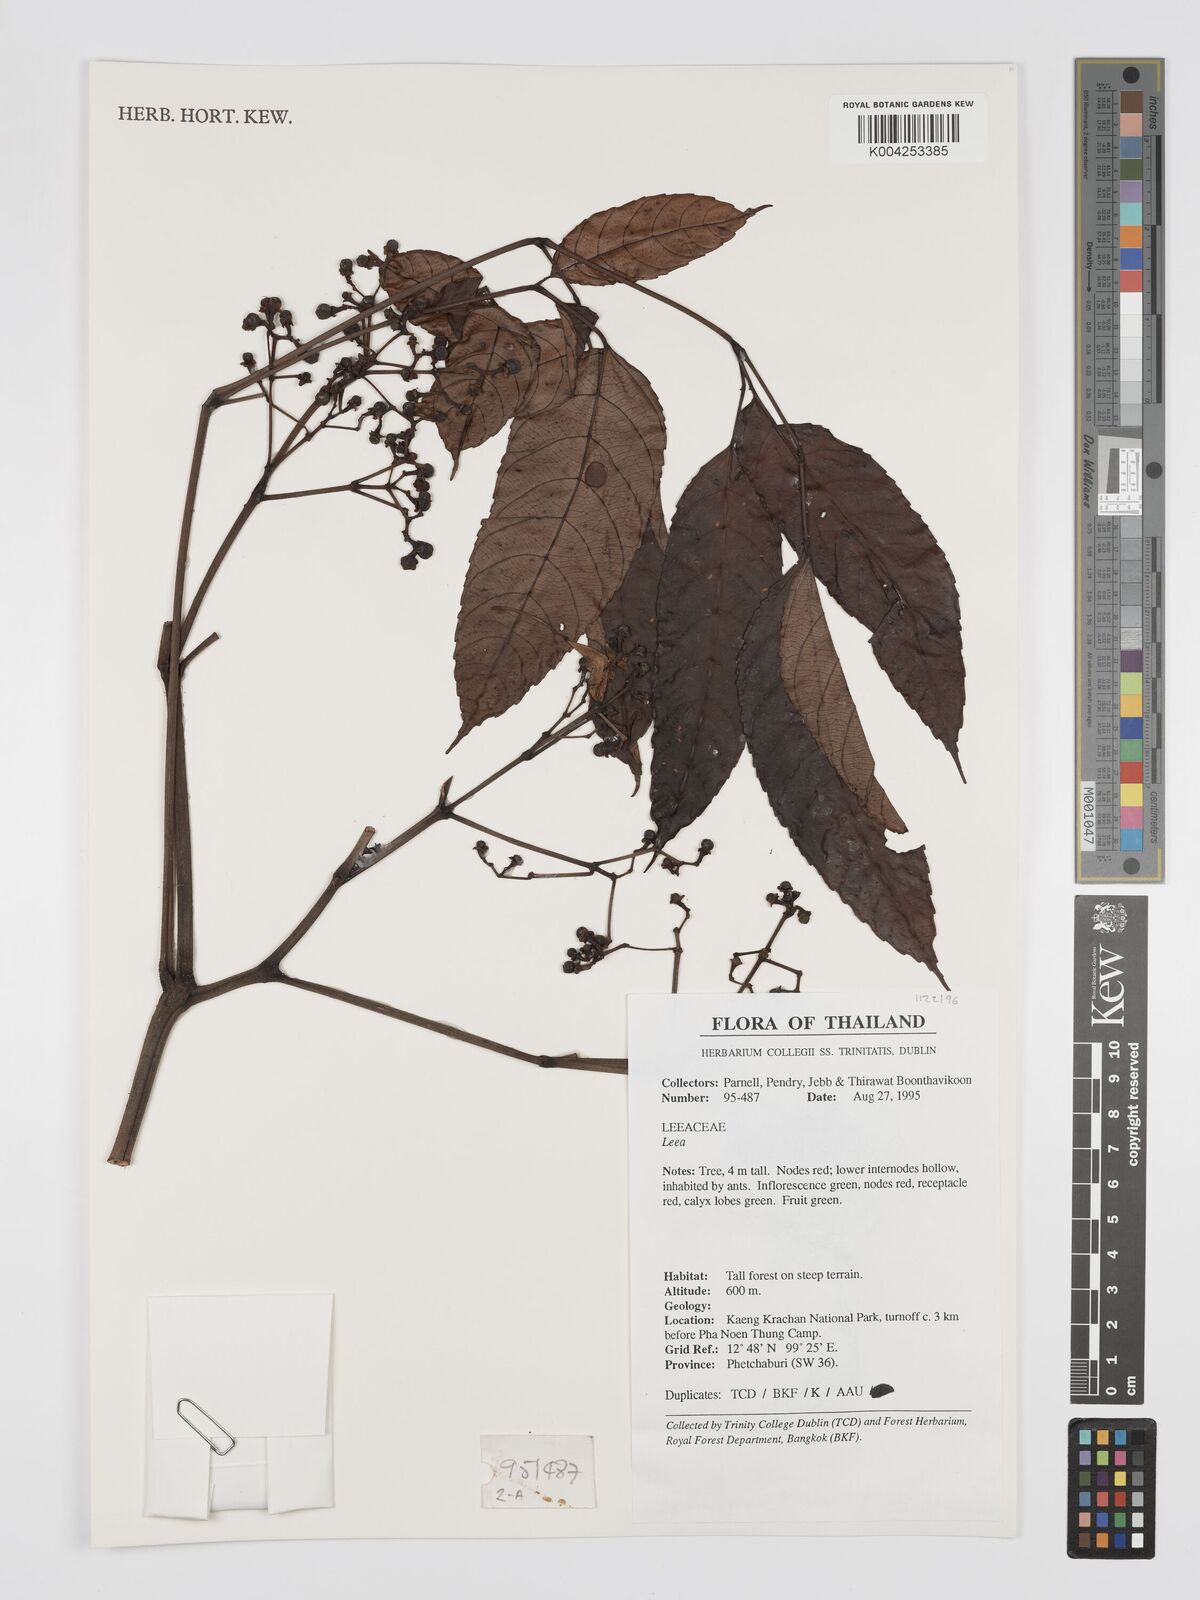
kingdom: Plantae
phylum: Tracheophyta
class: Magnoliopsida
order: Vitales
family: Vitaceae
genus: Leea
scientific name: Leea
